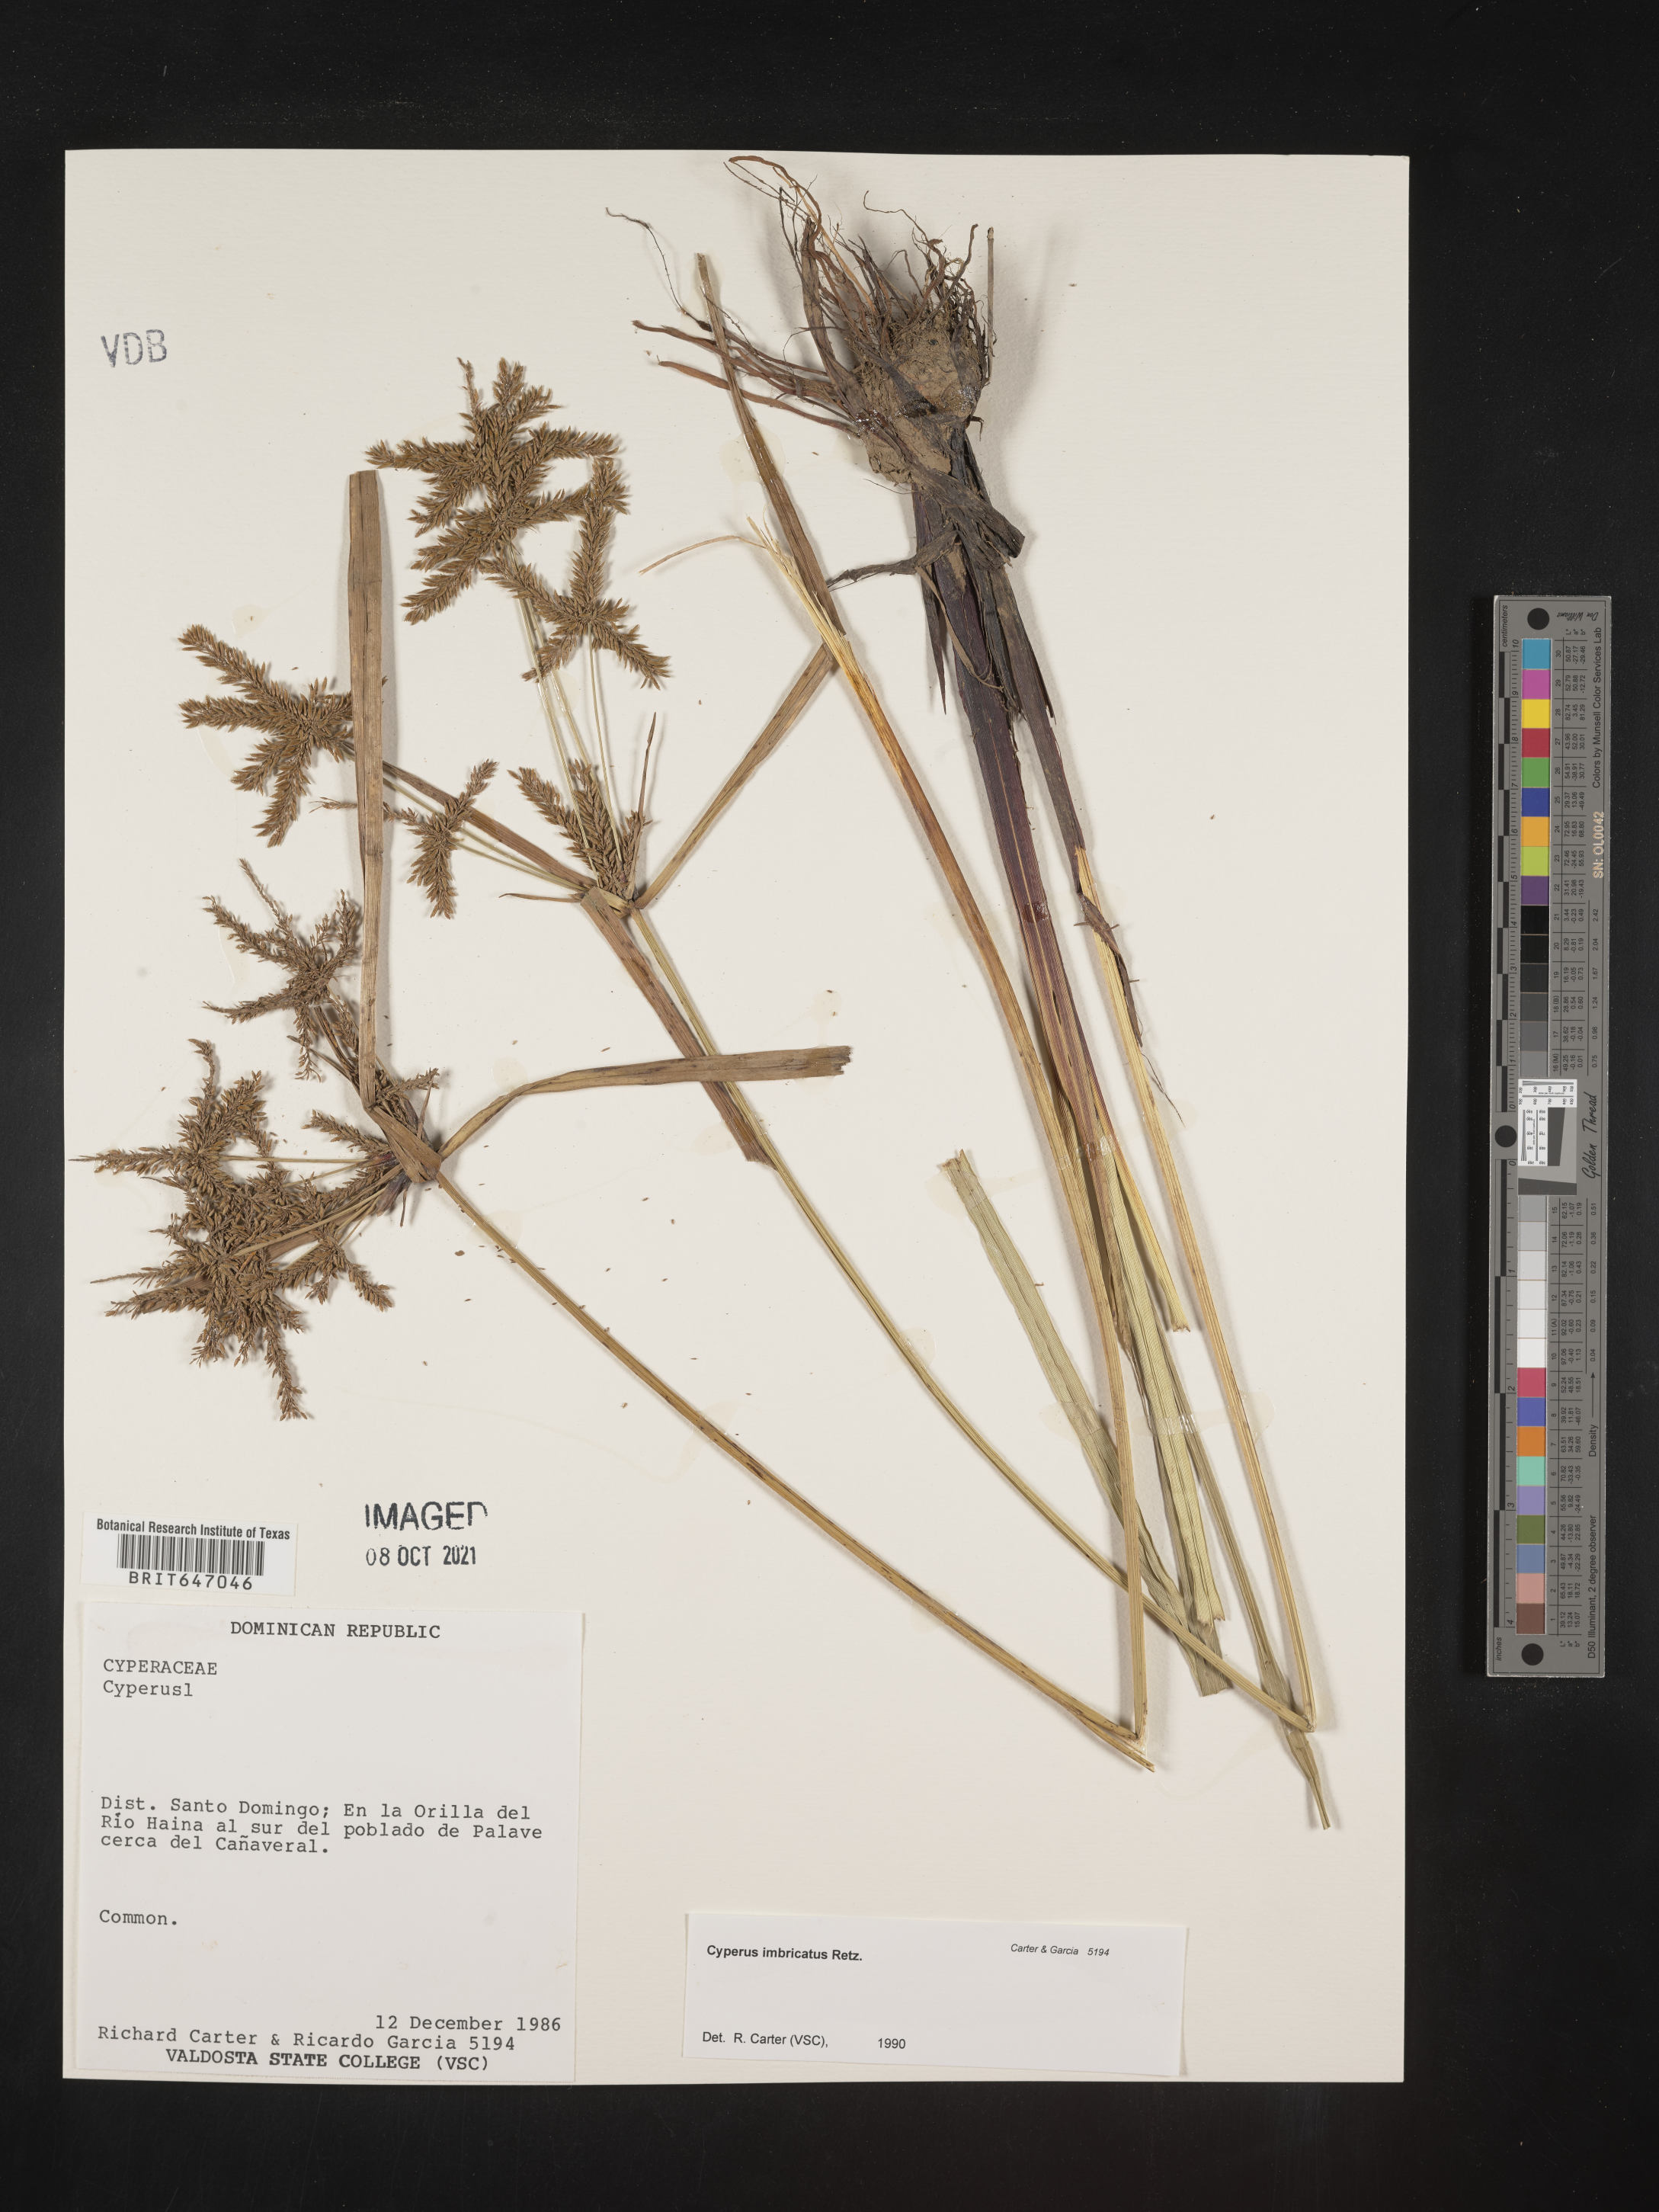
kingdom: Plantae
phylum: Tracheophyta
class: Liliopsida
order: Poales
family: Cyperaceae
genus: Cyperus
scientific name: Cyperus imbricatus
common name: Shingle flatsedge
